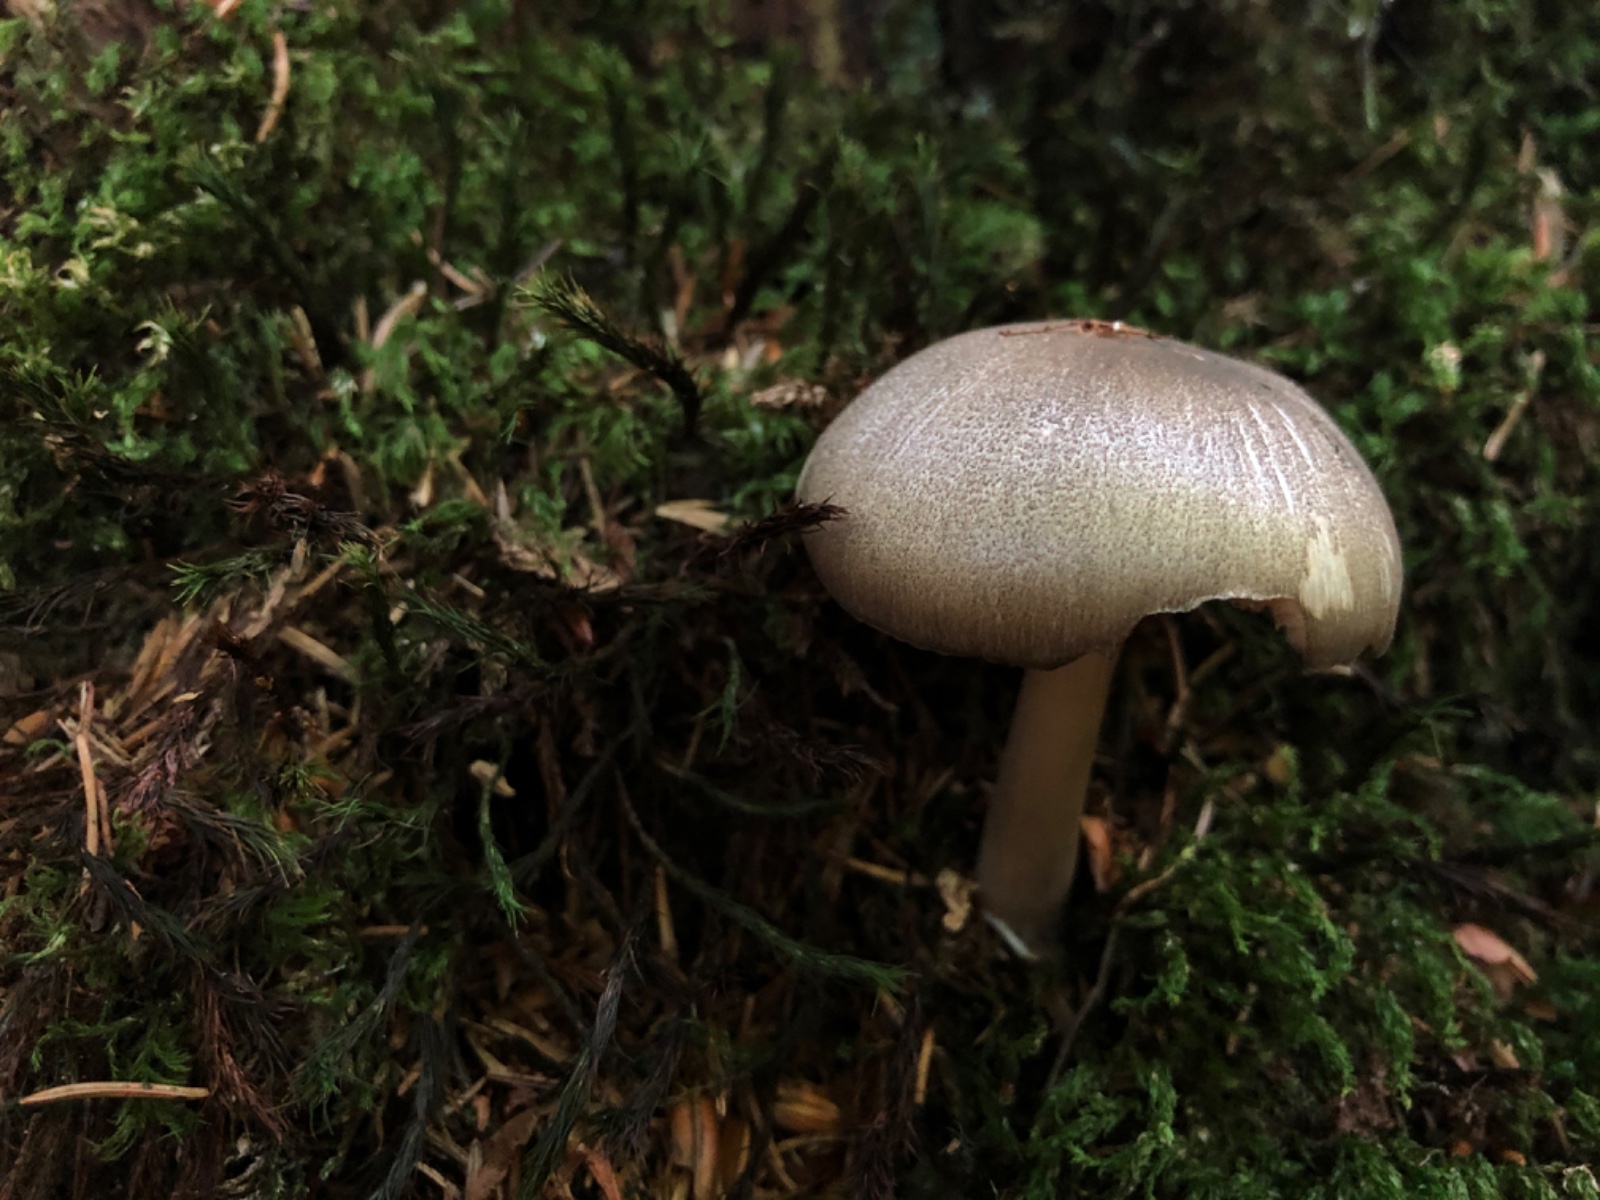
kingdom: Fungi
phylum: Basidiomycota
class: Agaricomycetes
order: Agaricales
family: Tricholomataceae
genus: Megacollybia
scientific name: Megacollybia platyphylla
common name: bredbladet væbnerhat
